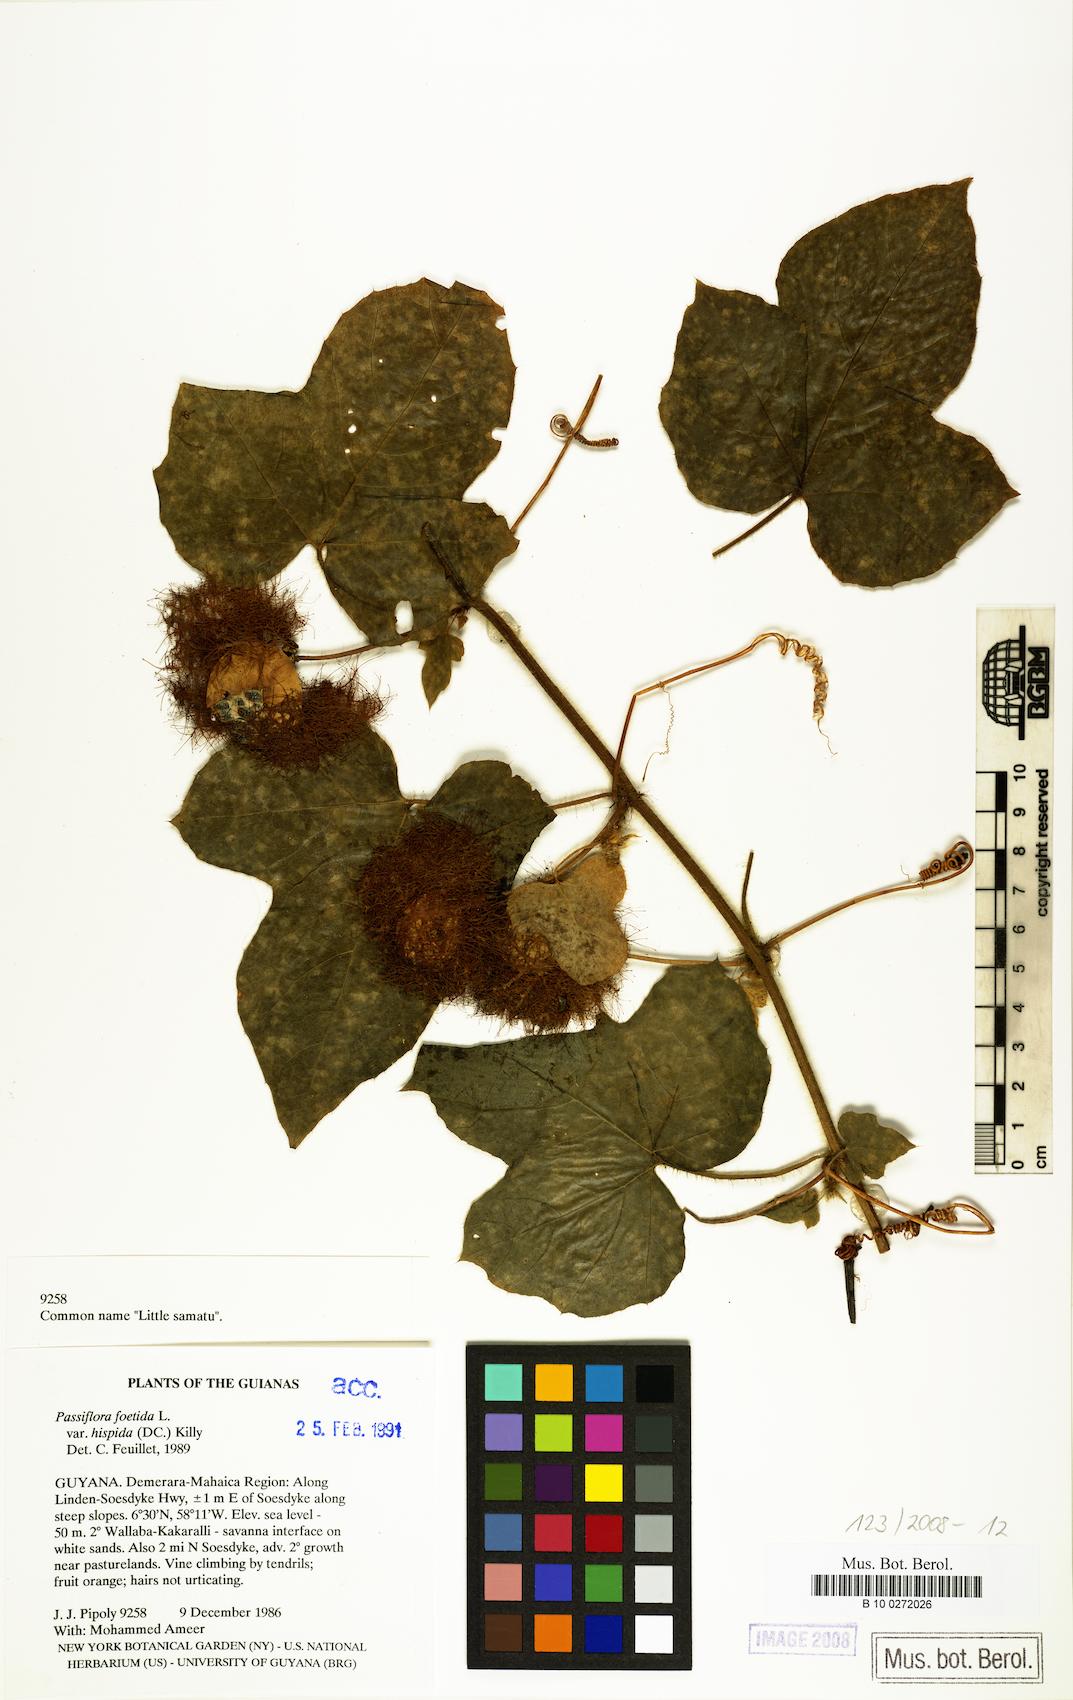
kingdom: Plantae
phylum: Tracheophyta
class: Magnoliopsida
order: Malpighiales
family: Passifloraceae
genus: Passiflora
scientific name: Passiflora vesicaria
